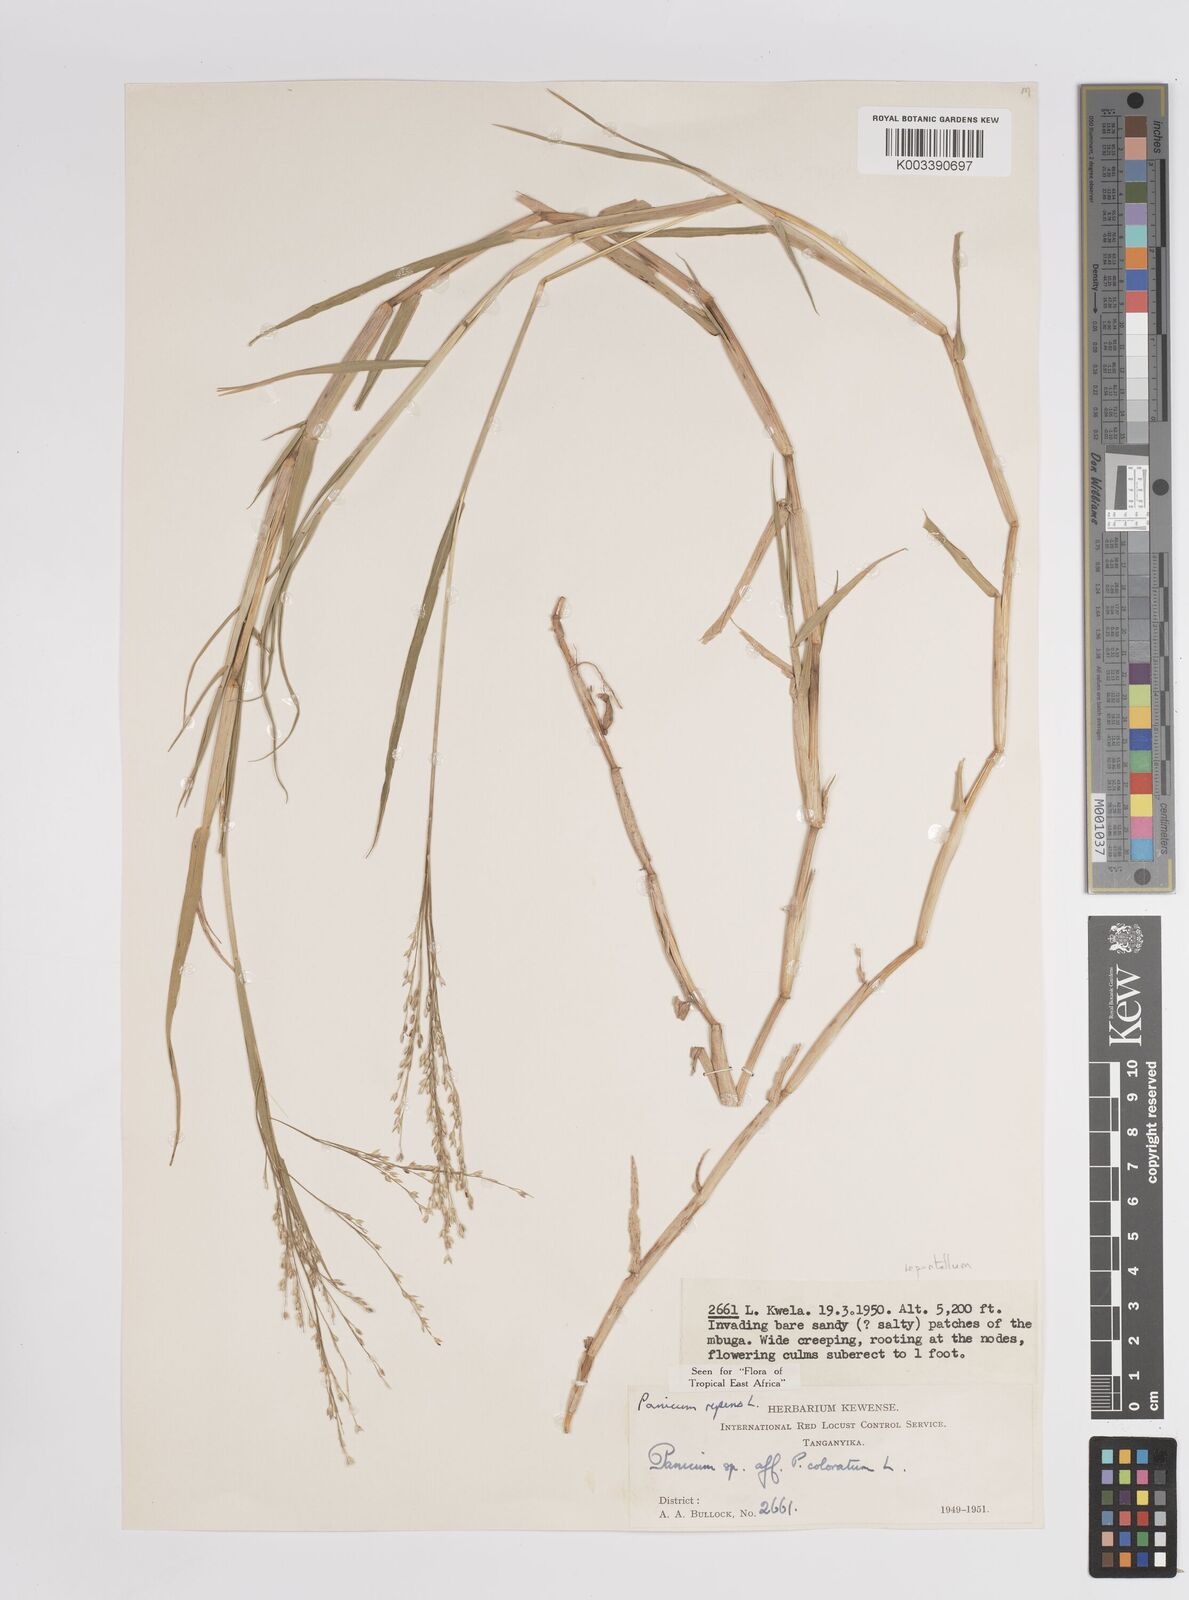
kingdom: Plantae
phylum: Tracheophyta
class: Liliopsida
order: Poales
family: Poaceae
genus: Panicum
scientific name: Panicum hygrocharis
